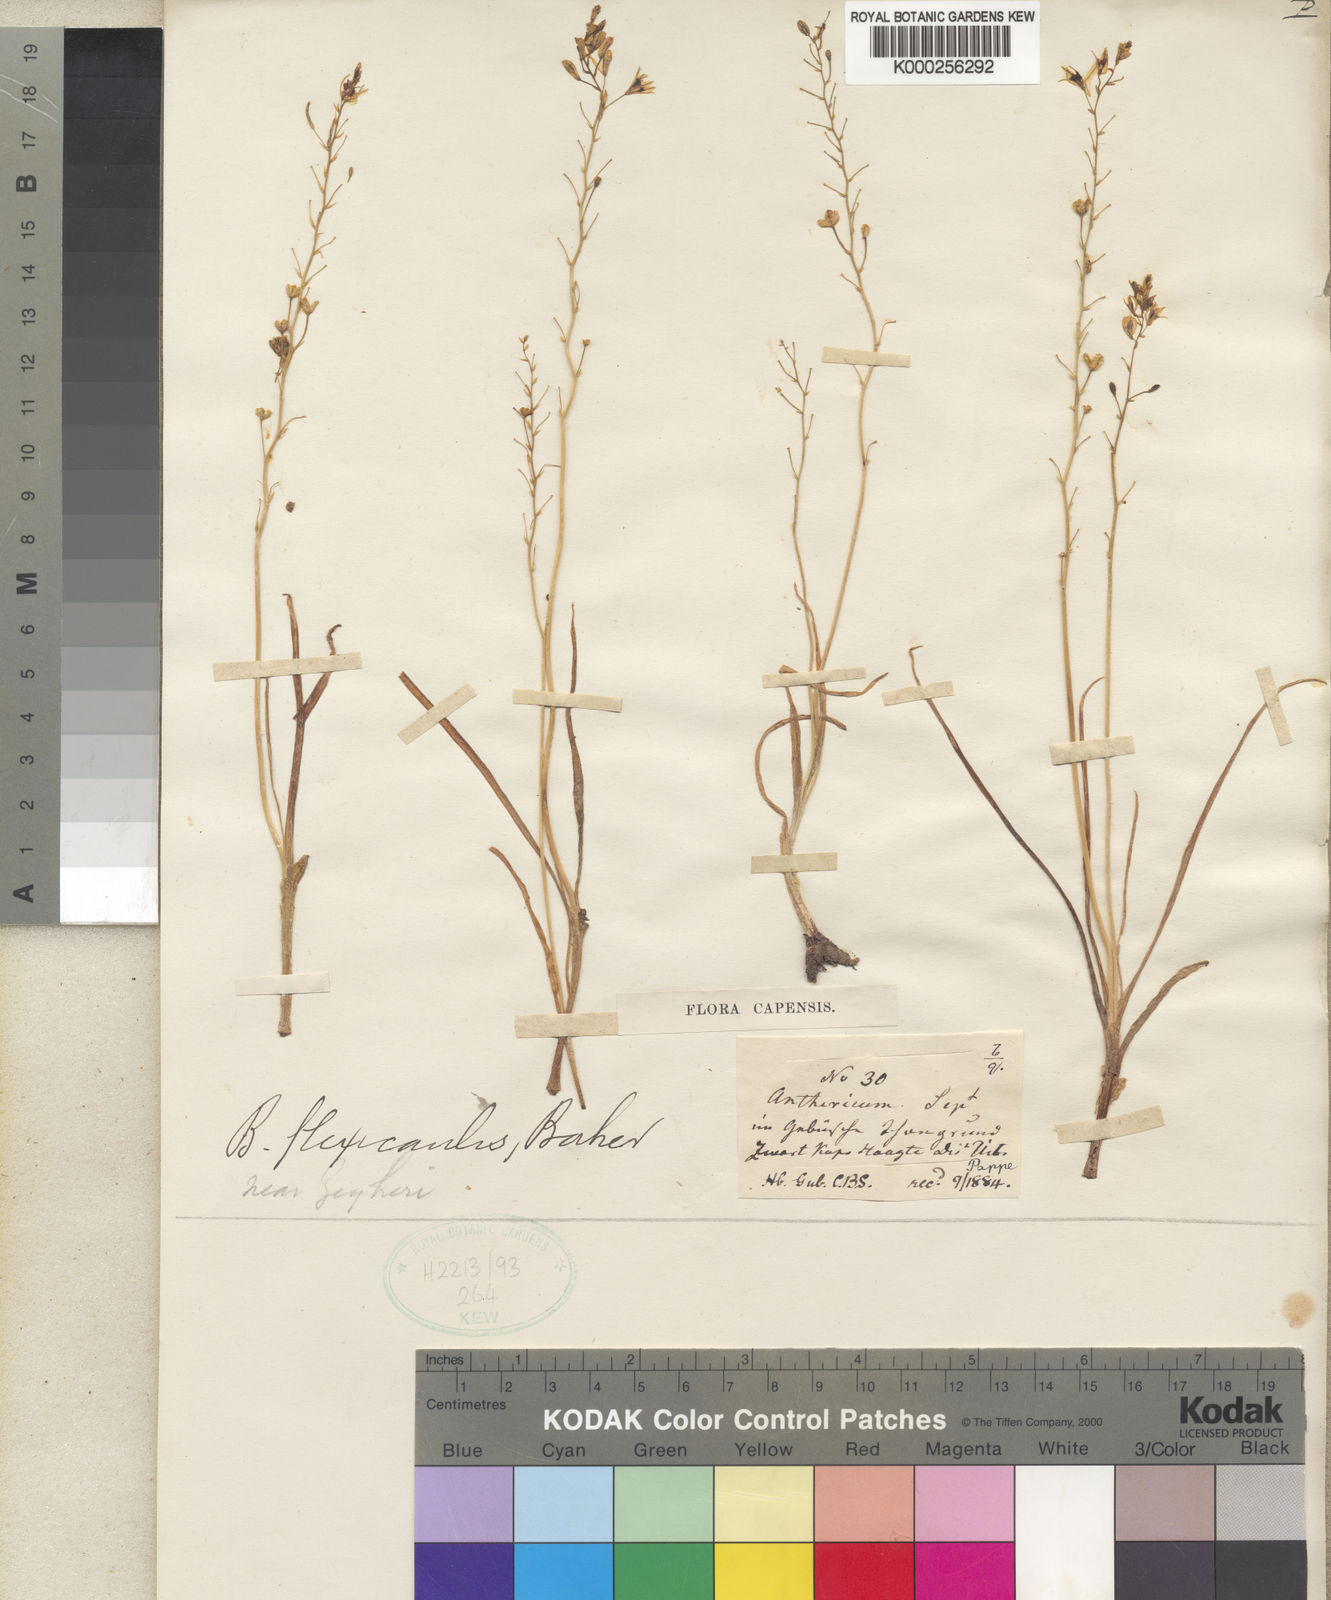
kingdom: Plantae
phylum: Tracheophyta
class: Liliopsida
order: Asparagales
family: Asphodelaceae
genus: Bulbine
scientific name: Bulbine flexicaulis
